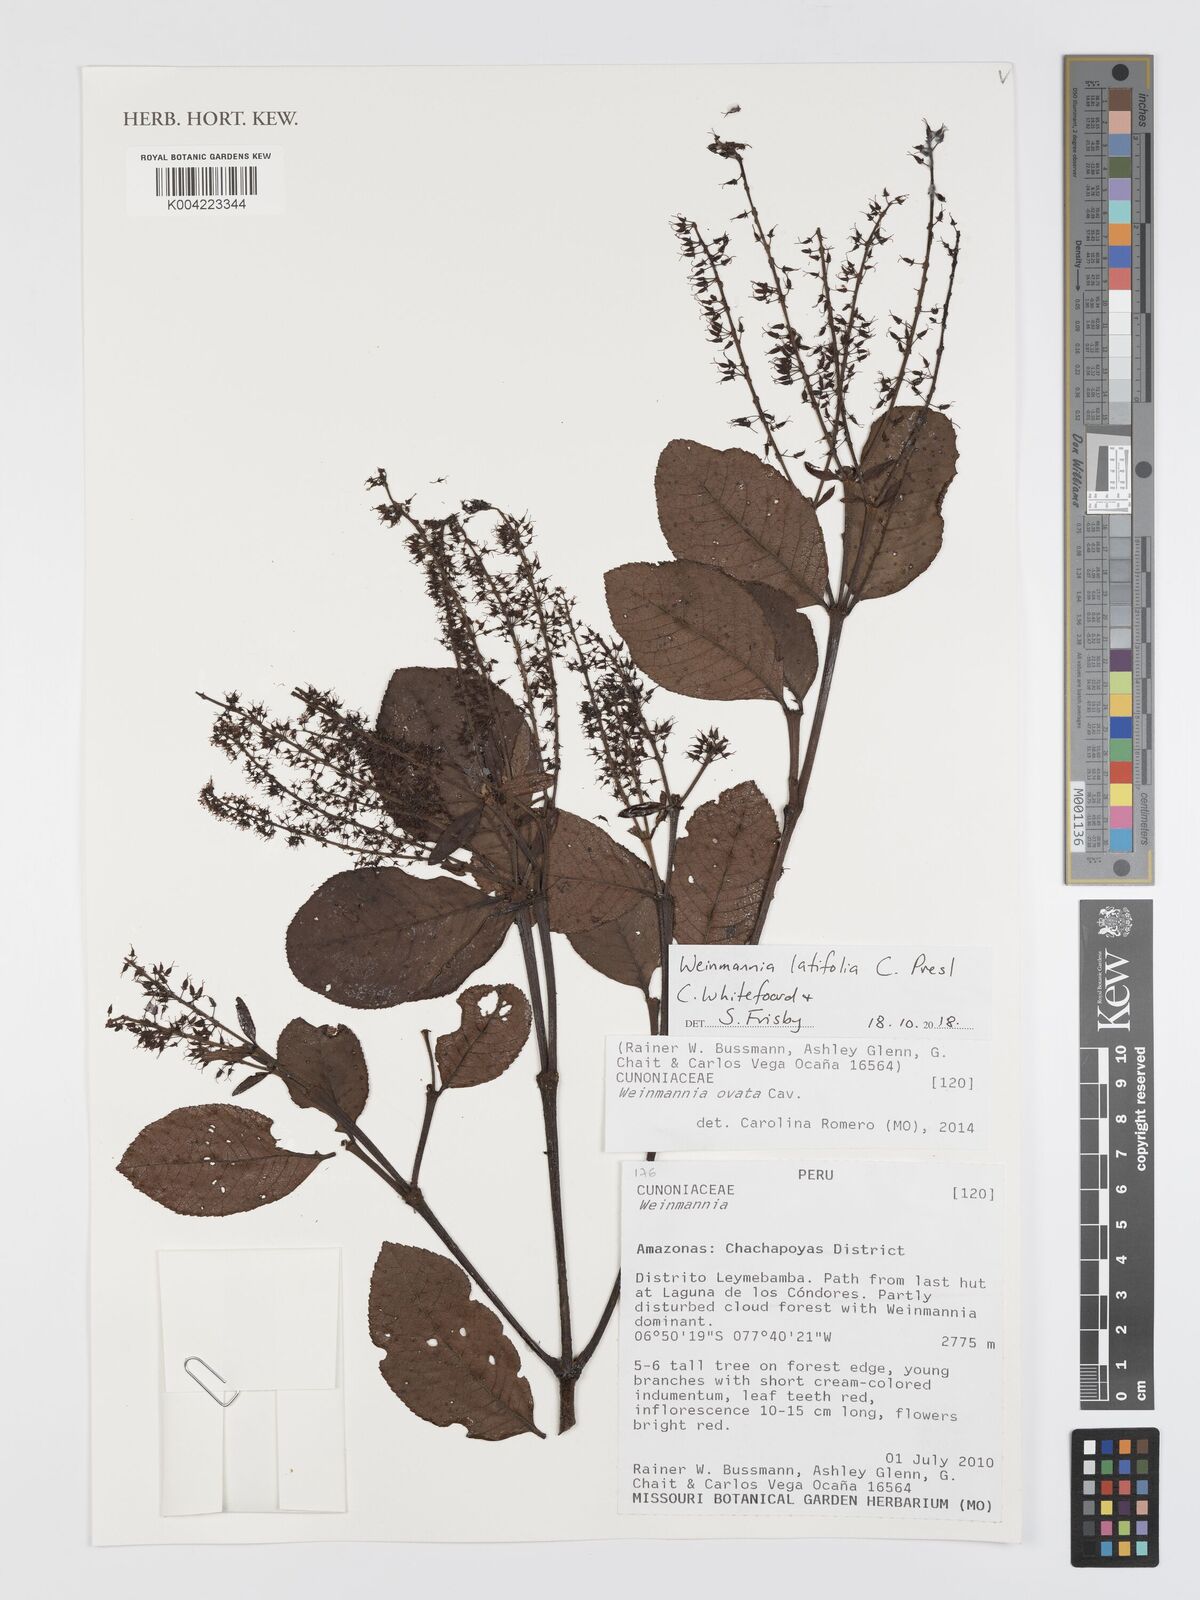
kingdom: Plantae
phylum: Tracheophyta
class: Magnoliopsida
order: Oxalidales
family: Cunoniaceae
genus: Weinmannia
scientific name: Weinmannia latifolia
